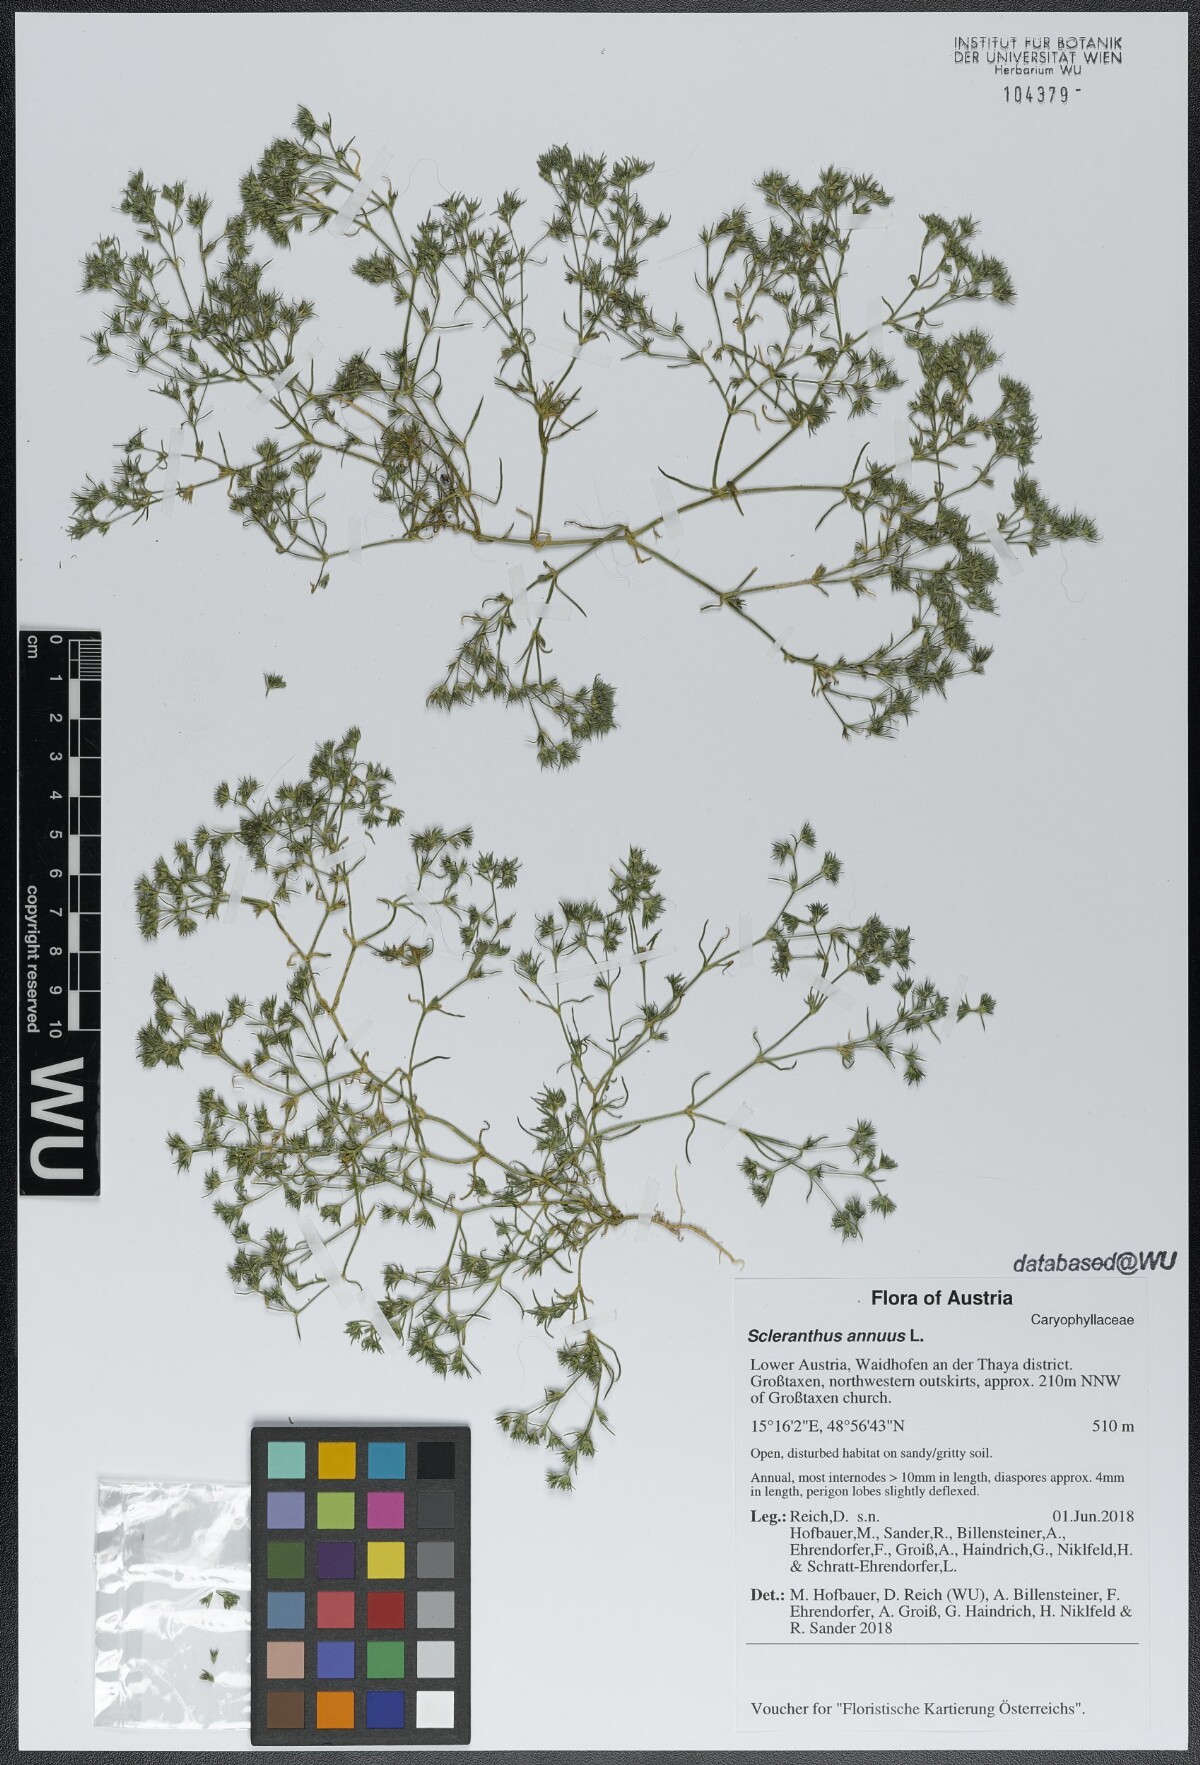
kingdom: Plantae
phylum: Tracheophyta
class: Magnoliopsida
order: Caryophyllales
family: Caryophyllaceae
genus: Scleranthus
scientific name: Scleranthus annuus
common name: Annual knawel
